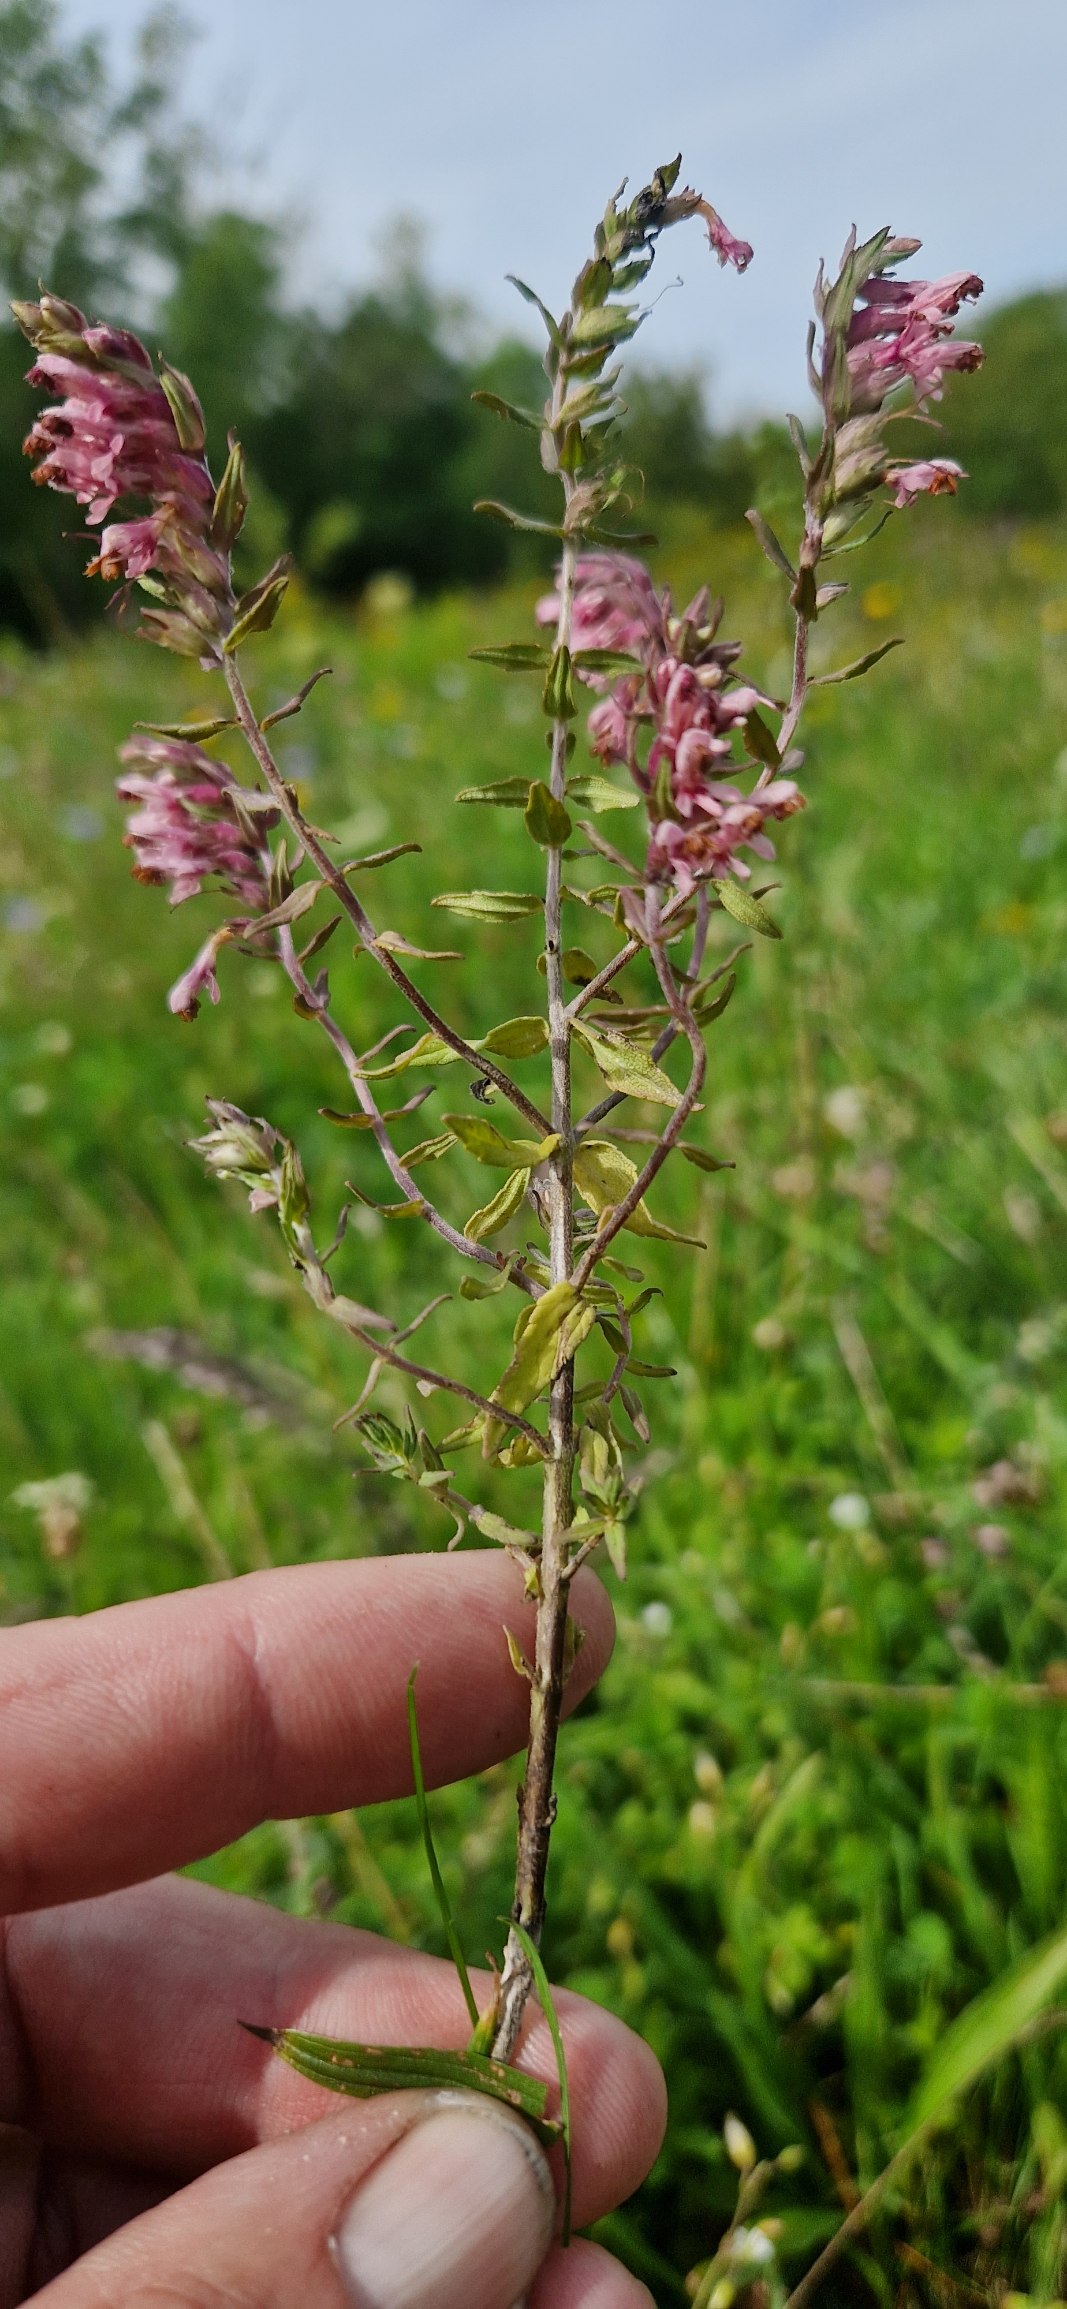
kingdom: Plantae
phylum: Tracheophyta
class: Magnoliopsida
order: Lamiales
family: Orobanchaceae
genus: Odontites
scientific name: Odontites vernus
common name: Mark-rødtop
